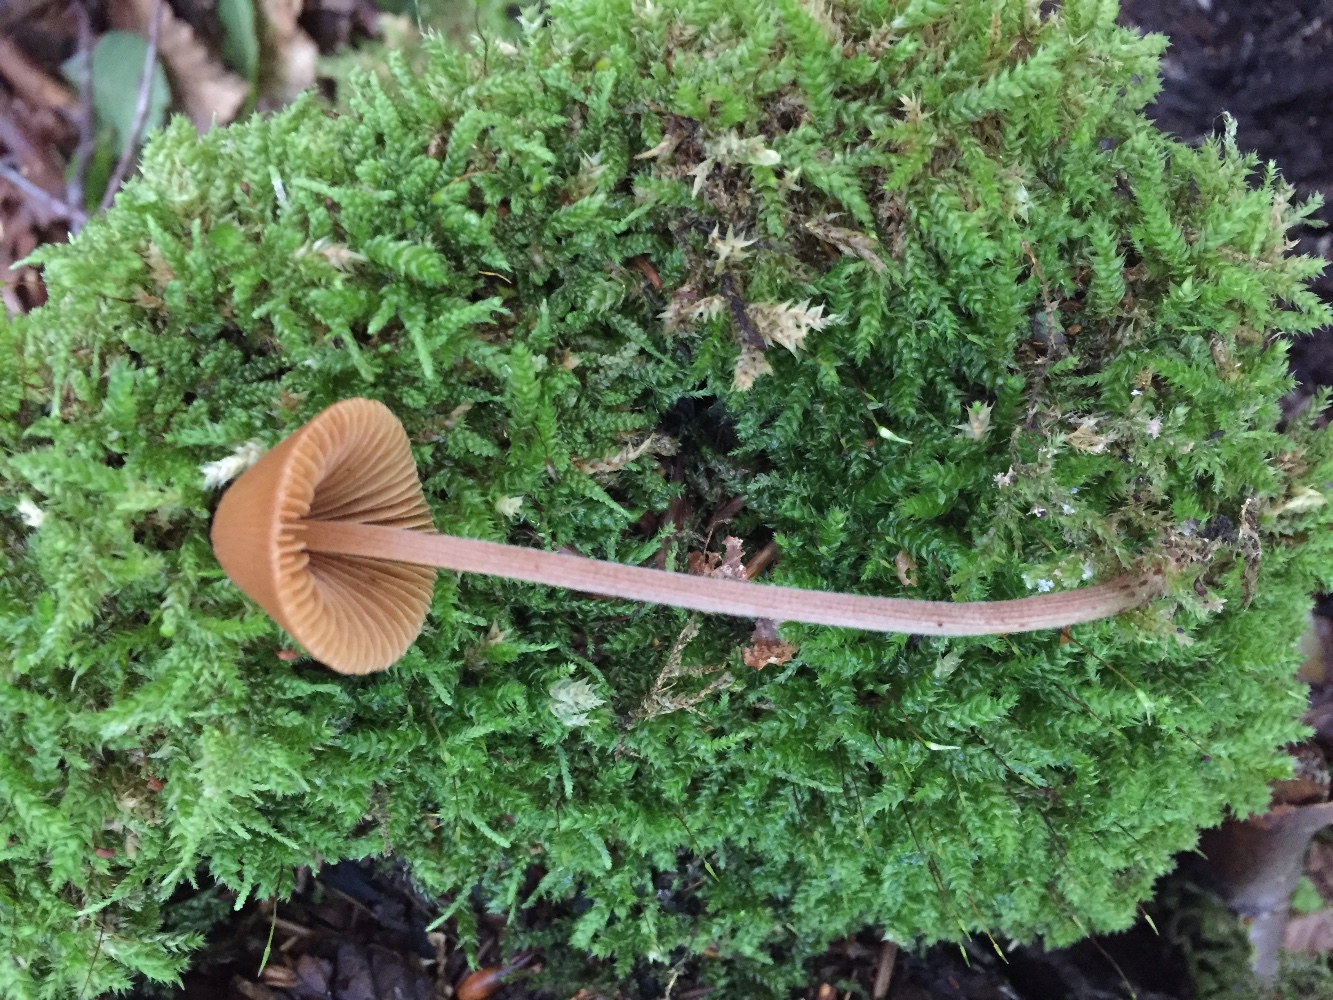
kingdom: Fungi
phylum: Basidiomycota
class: Agaricomycetes
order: Agaricales
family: Bolbitiaceae
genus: Conocybe
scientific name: Conocybe subpubescens
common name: krat-keglehat
